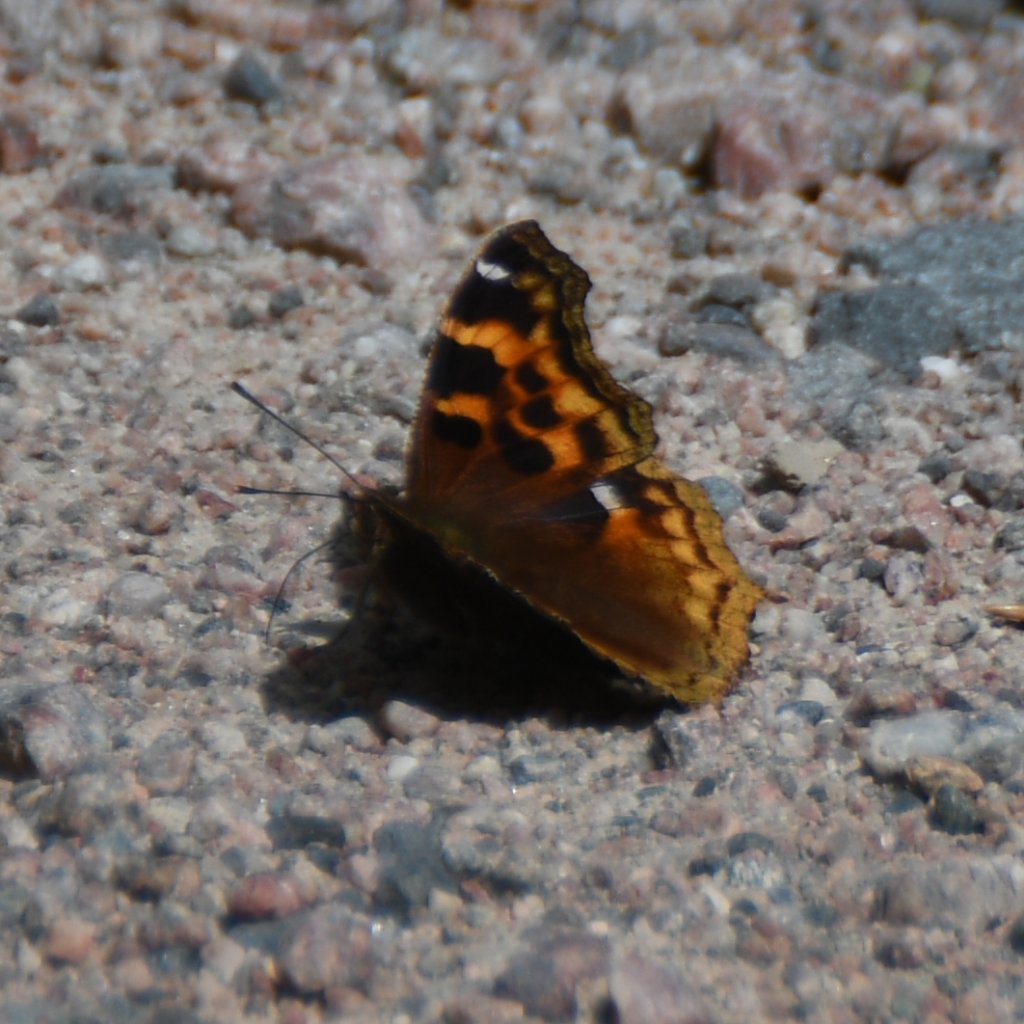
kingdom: Animalia
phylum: Arthropoda
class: Insecta
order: Lepidoptera
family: Nymphalidae
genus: Polygonia
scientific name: Polygonia vaualbum
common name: Compton Tortoiseshell
